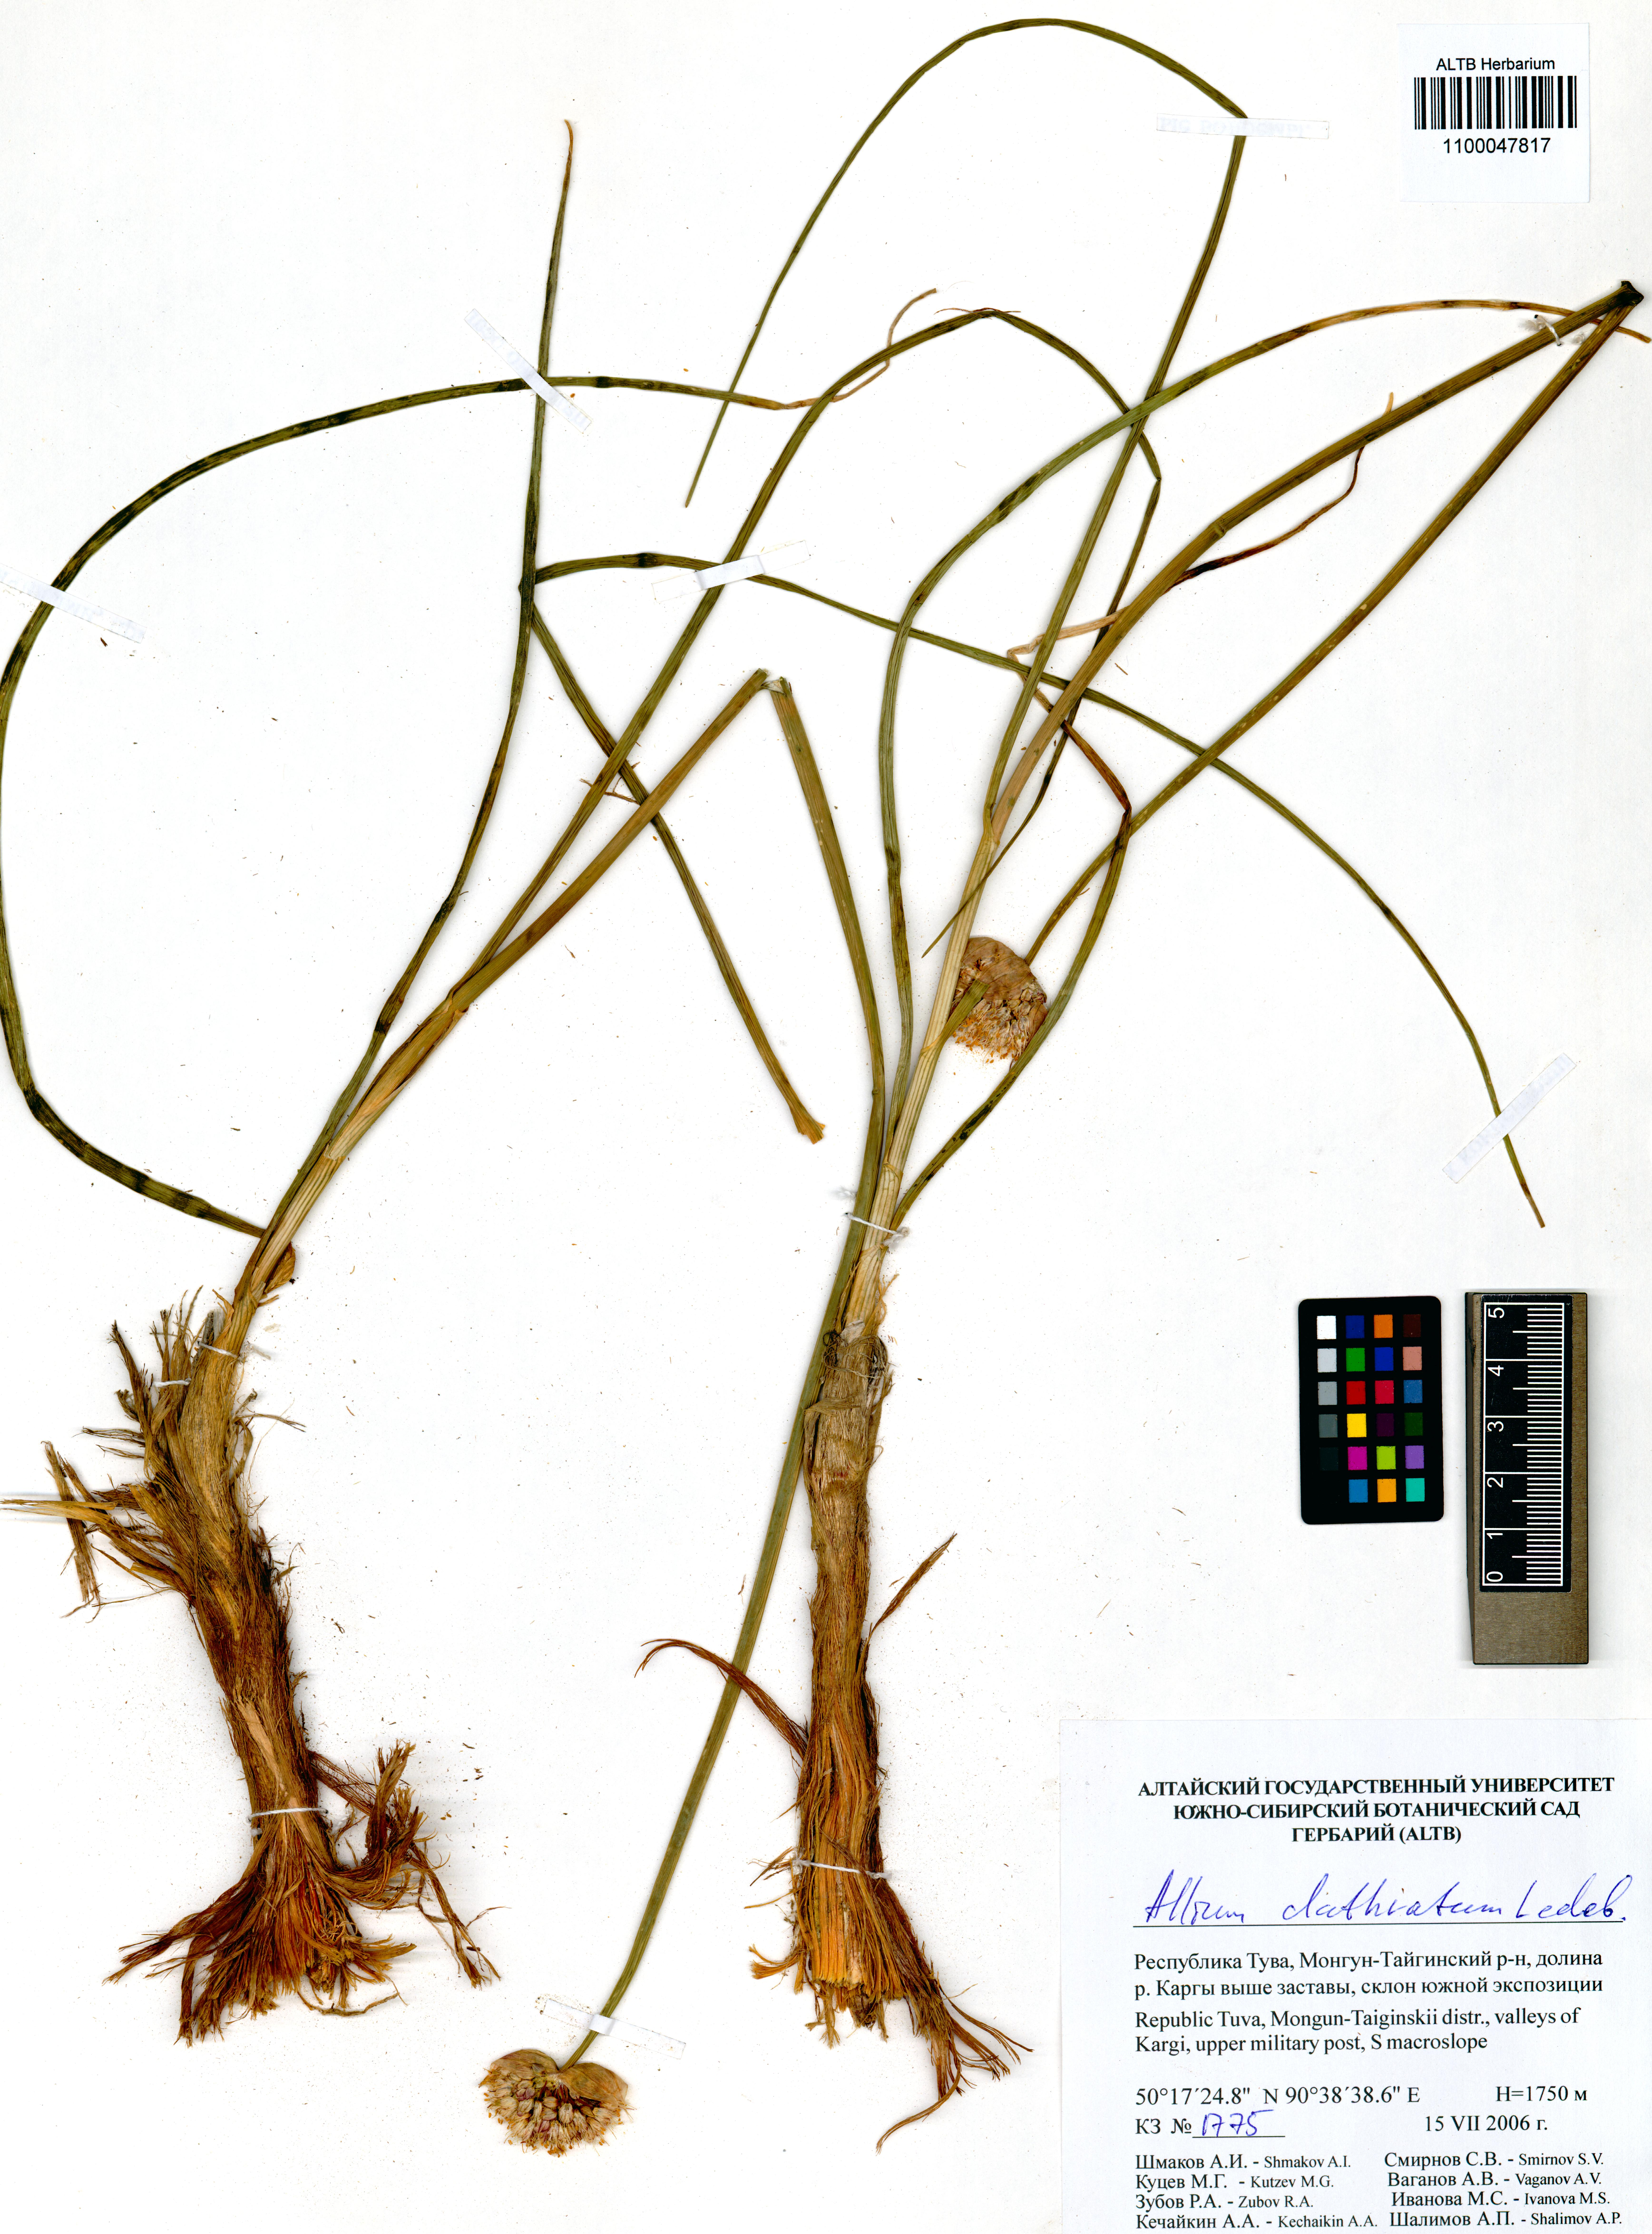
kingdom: Plantae
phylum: Tracheophyta
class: Liliopsida
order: Asparagales
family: Amaryllidaceae
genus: Allium
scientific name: Allium clathratum
